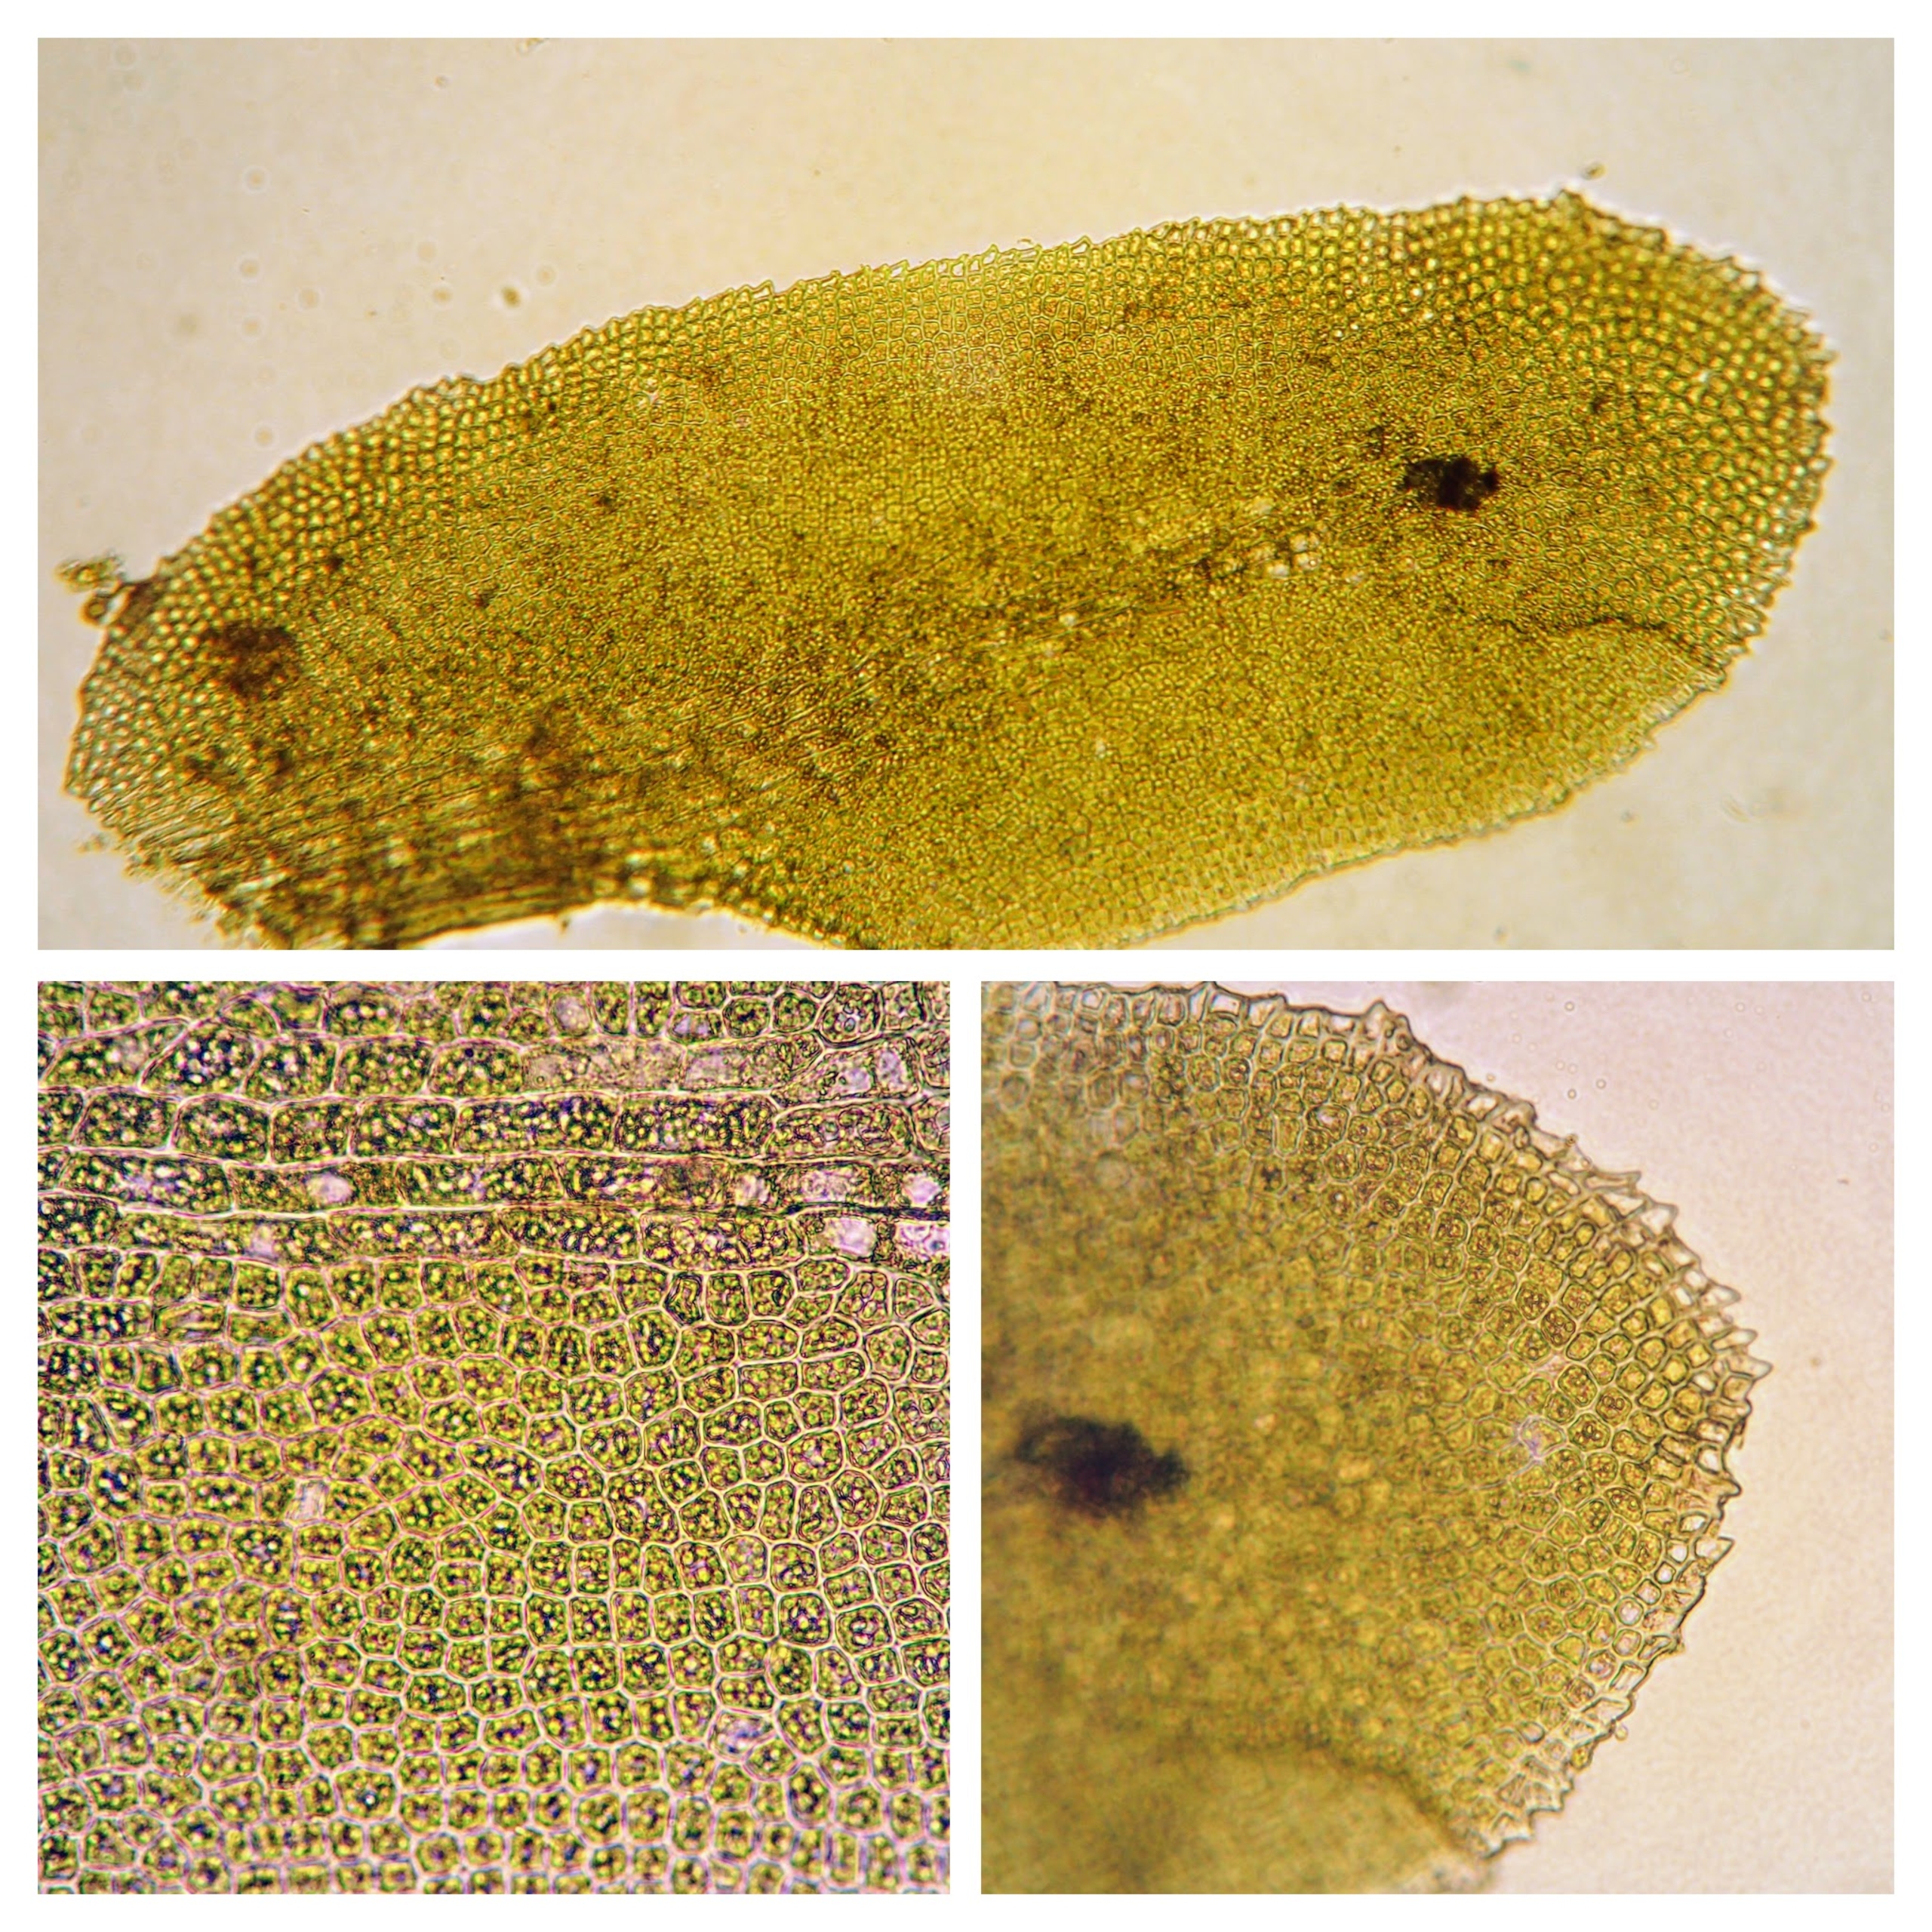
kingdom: Plantae
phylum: Marchantiophyta
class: Jungermanniopsida
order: Jungermanniales
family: Scapaniaceae
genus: Diplophyllum
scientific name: Diplophyllum albicans
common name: Stribet dobbeltblad
